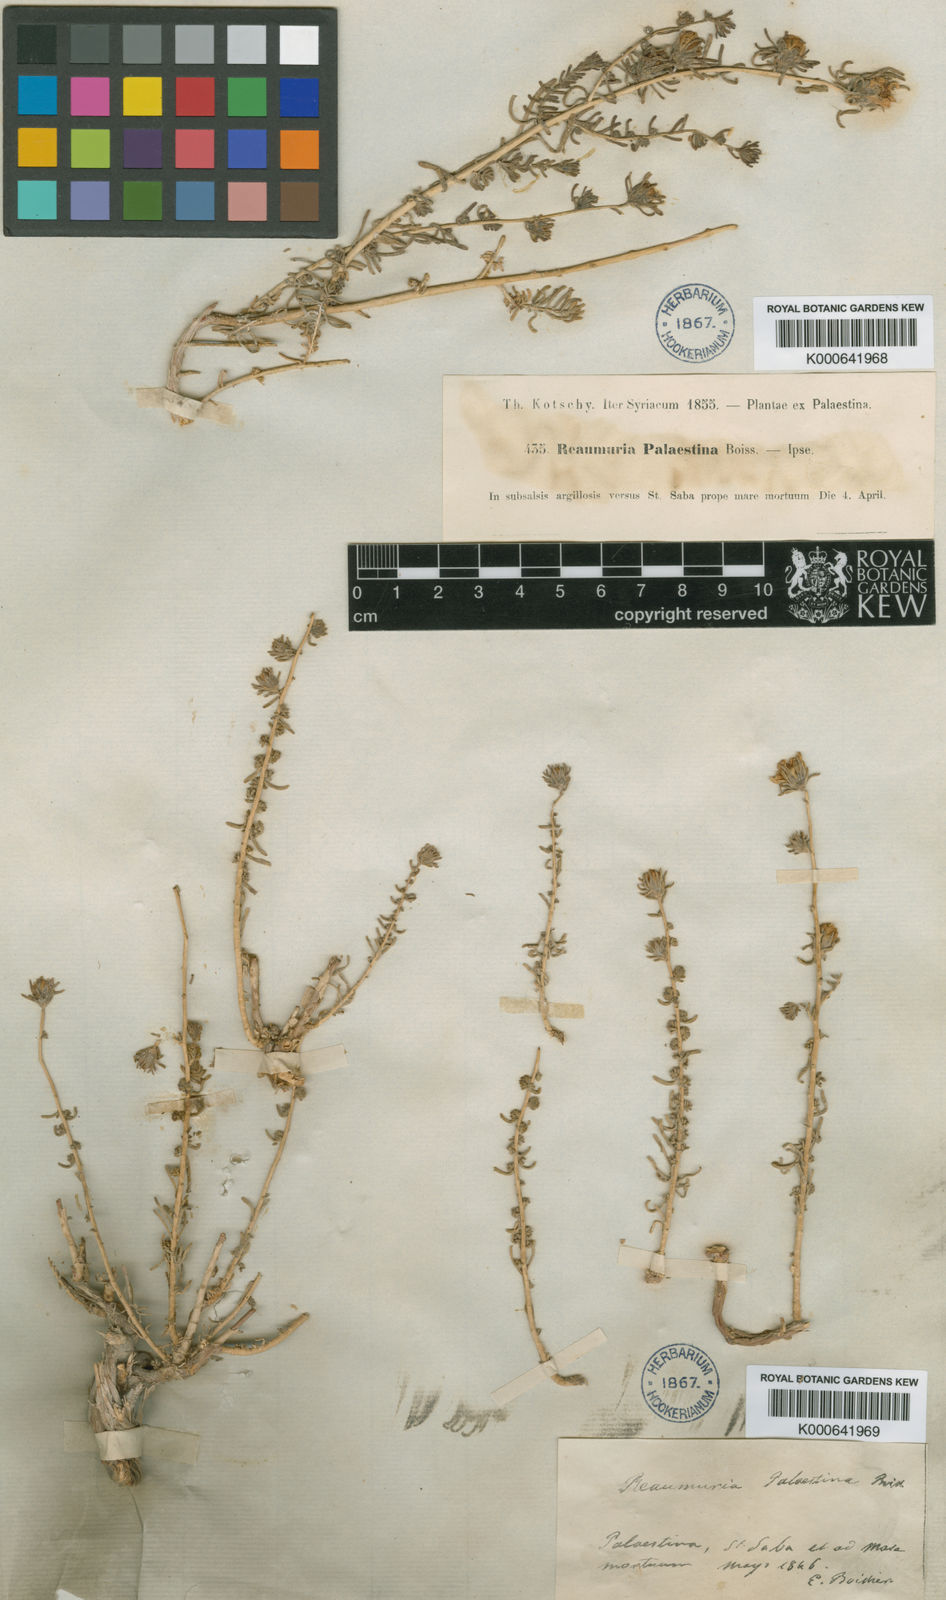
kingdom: Plantae
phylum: Tracheophyta
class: Magnoliopsida
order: Caryophyllales
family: Tamaricaceae
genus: Reaumuria
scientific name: Reaumuria hirtella
